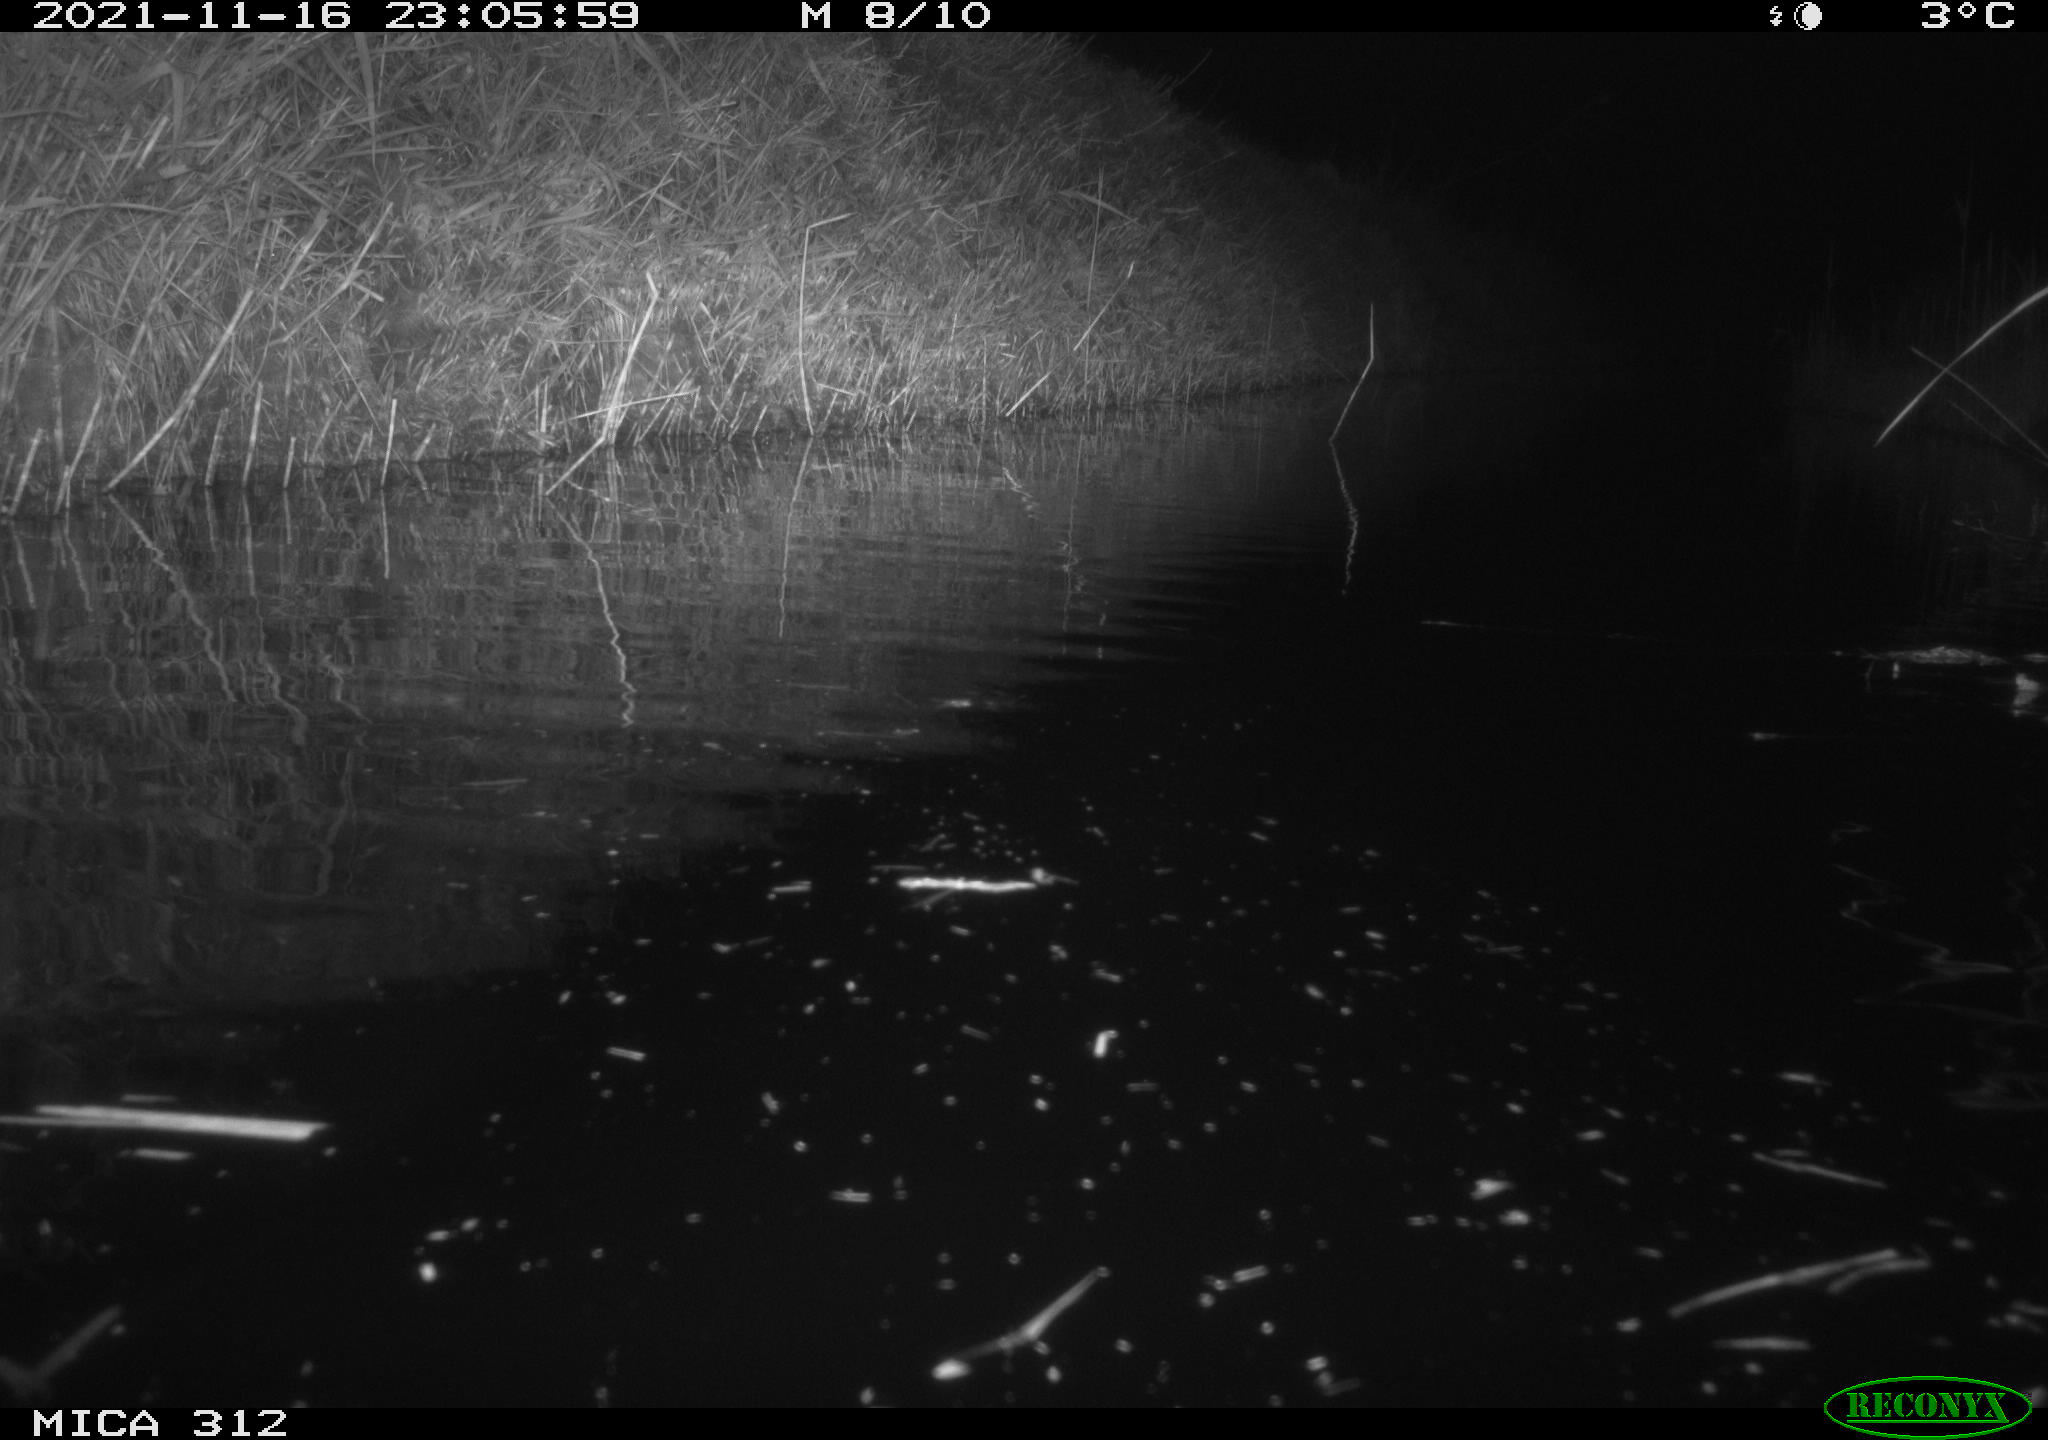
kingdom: Animalia
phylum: Chordata
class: Mammalia
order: Rodentia
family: Muridae
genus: Rattus
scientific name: Rattus norvegicus
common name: Brown rat
